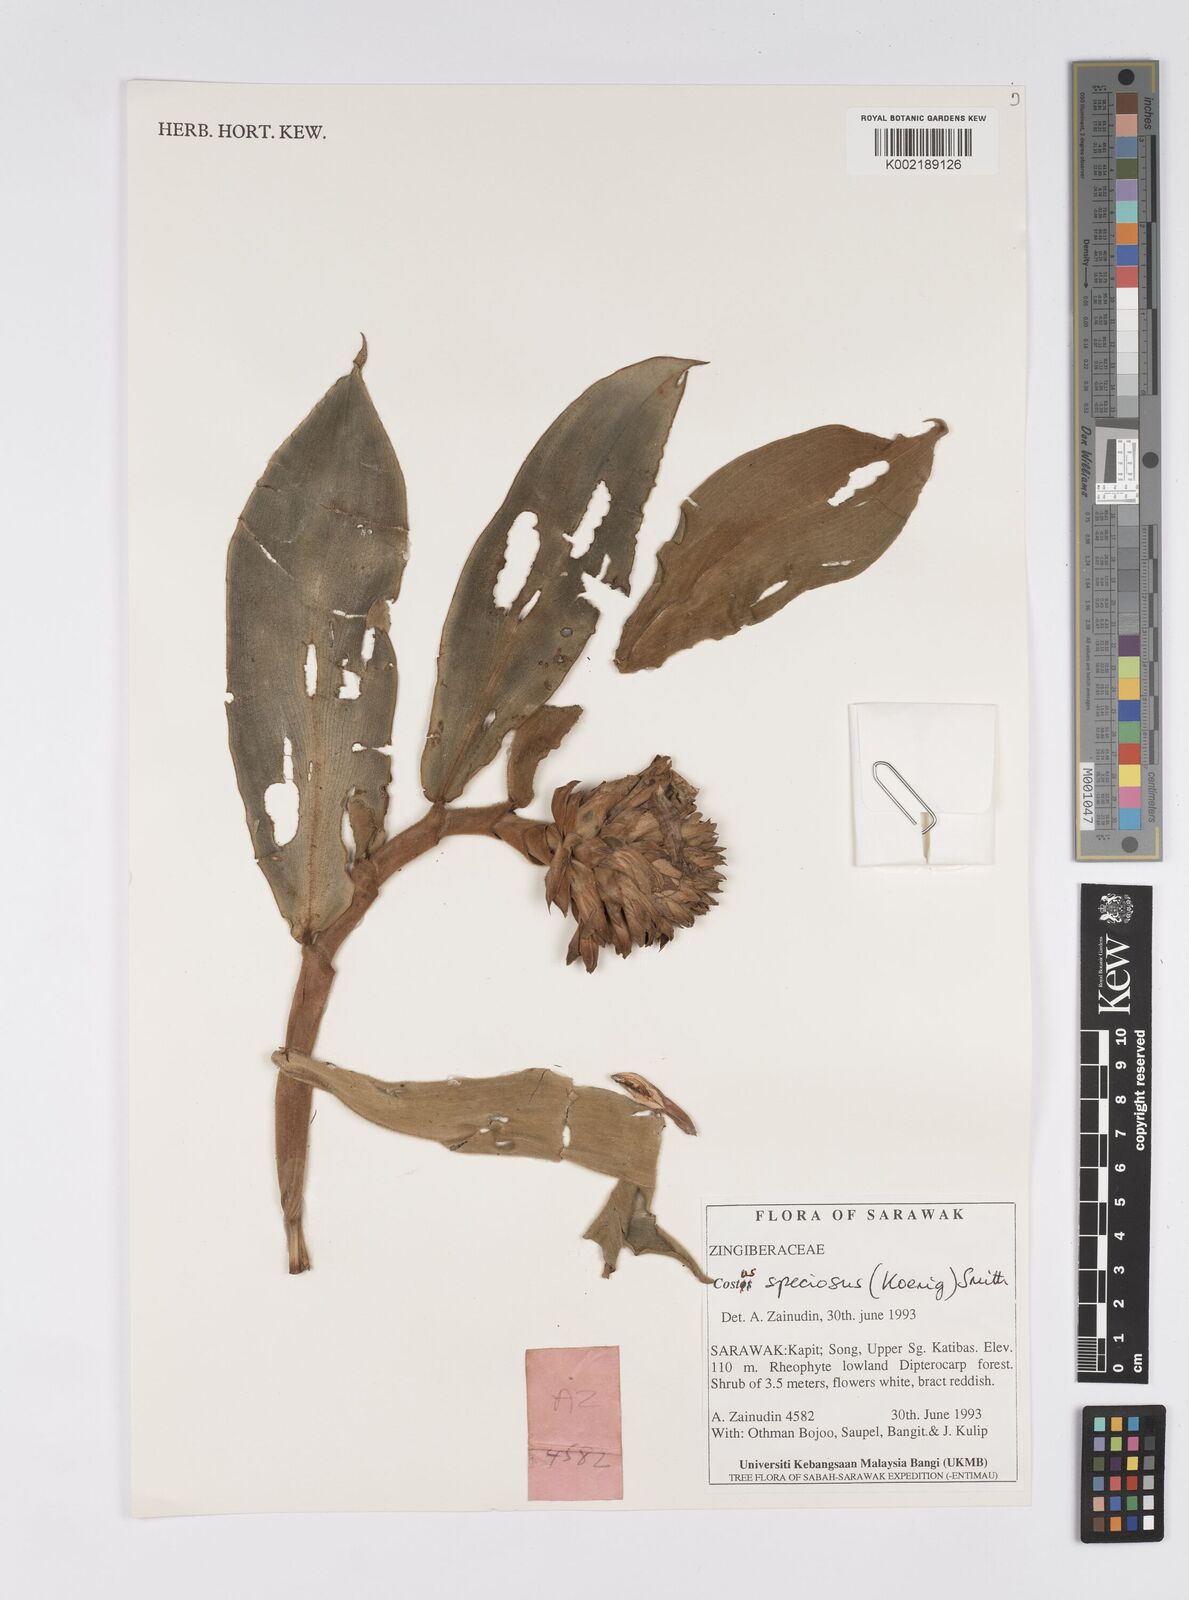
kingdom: Plantae
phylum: Tracheophyta
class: Liliopsida
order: Zingiberales
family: Costaceae
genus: Hellenia
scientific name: Hellenia speciosa
